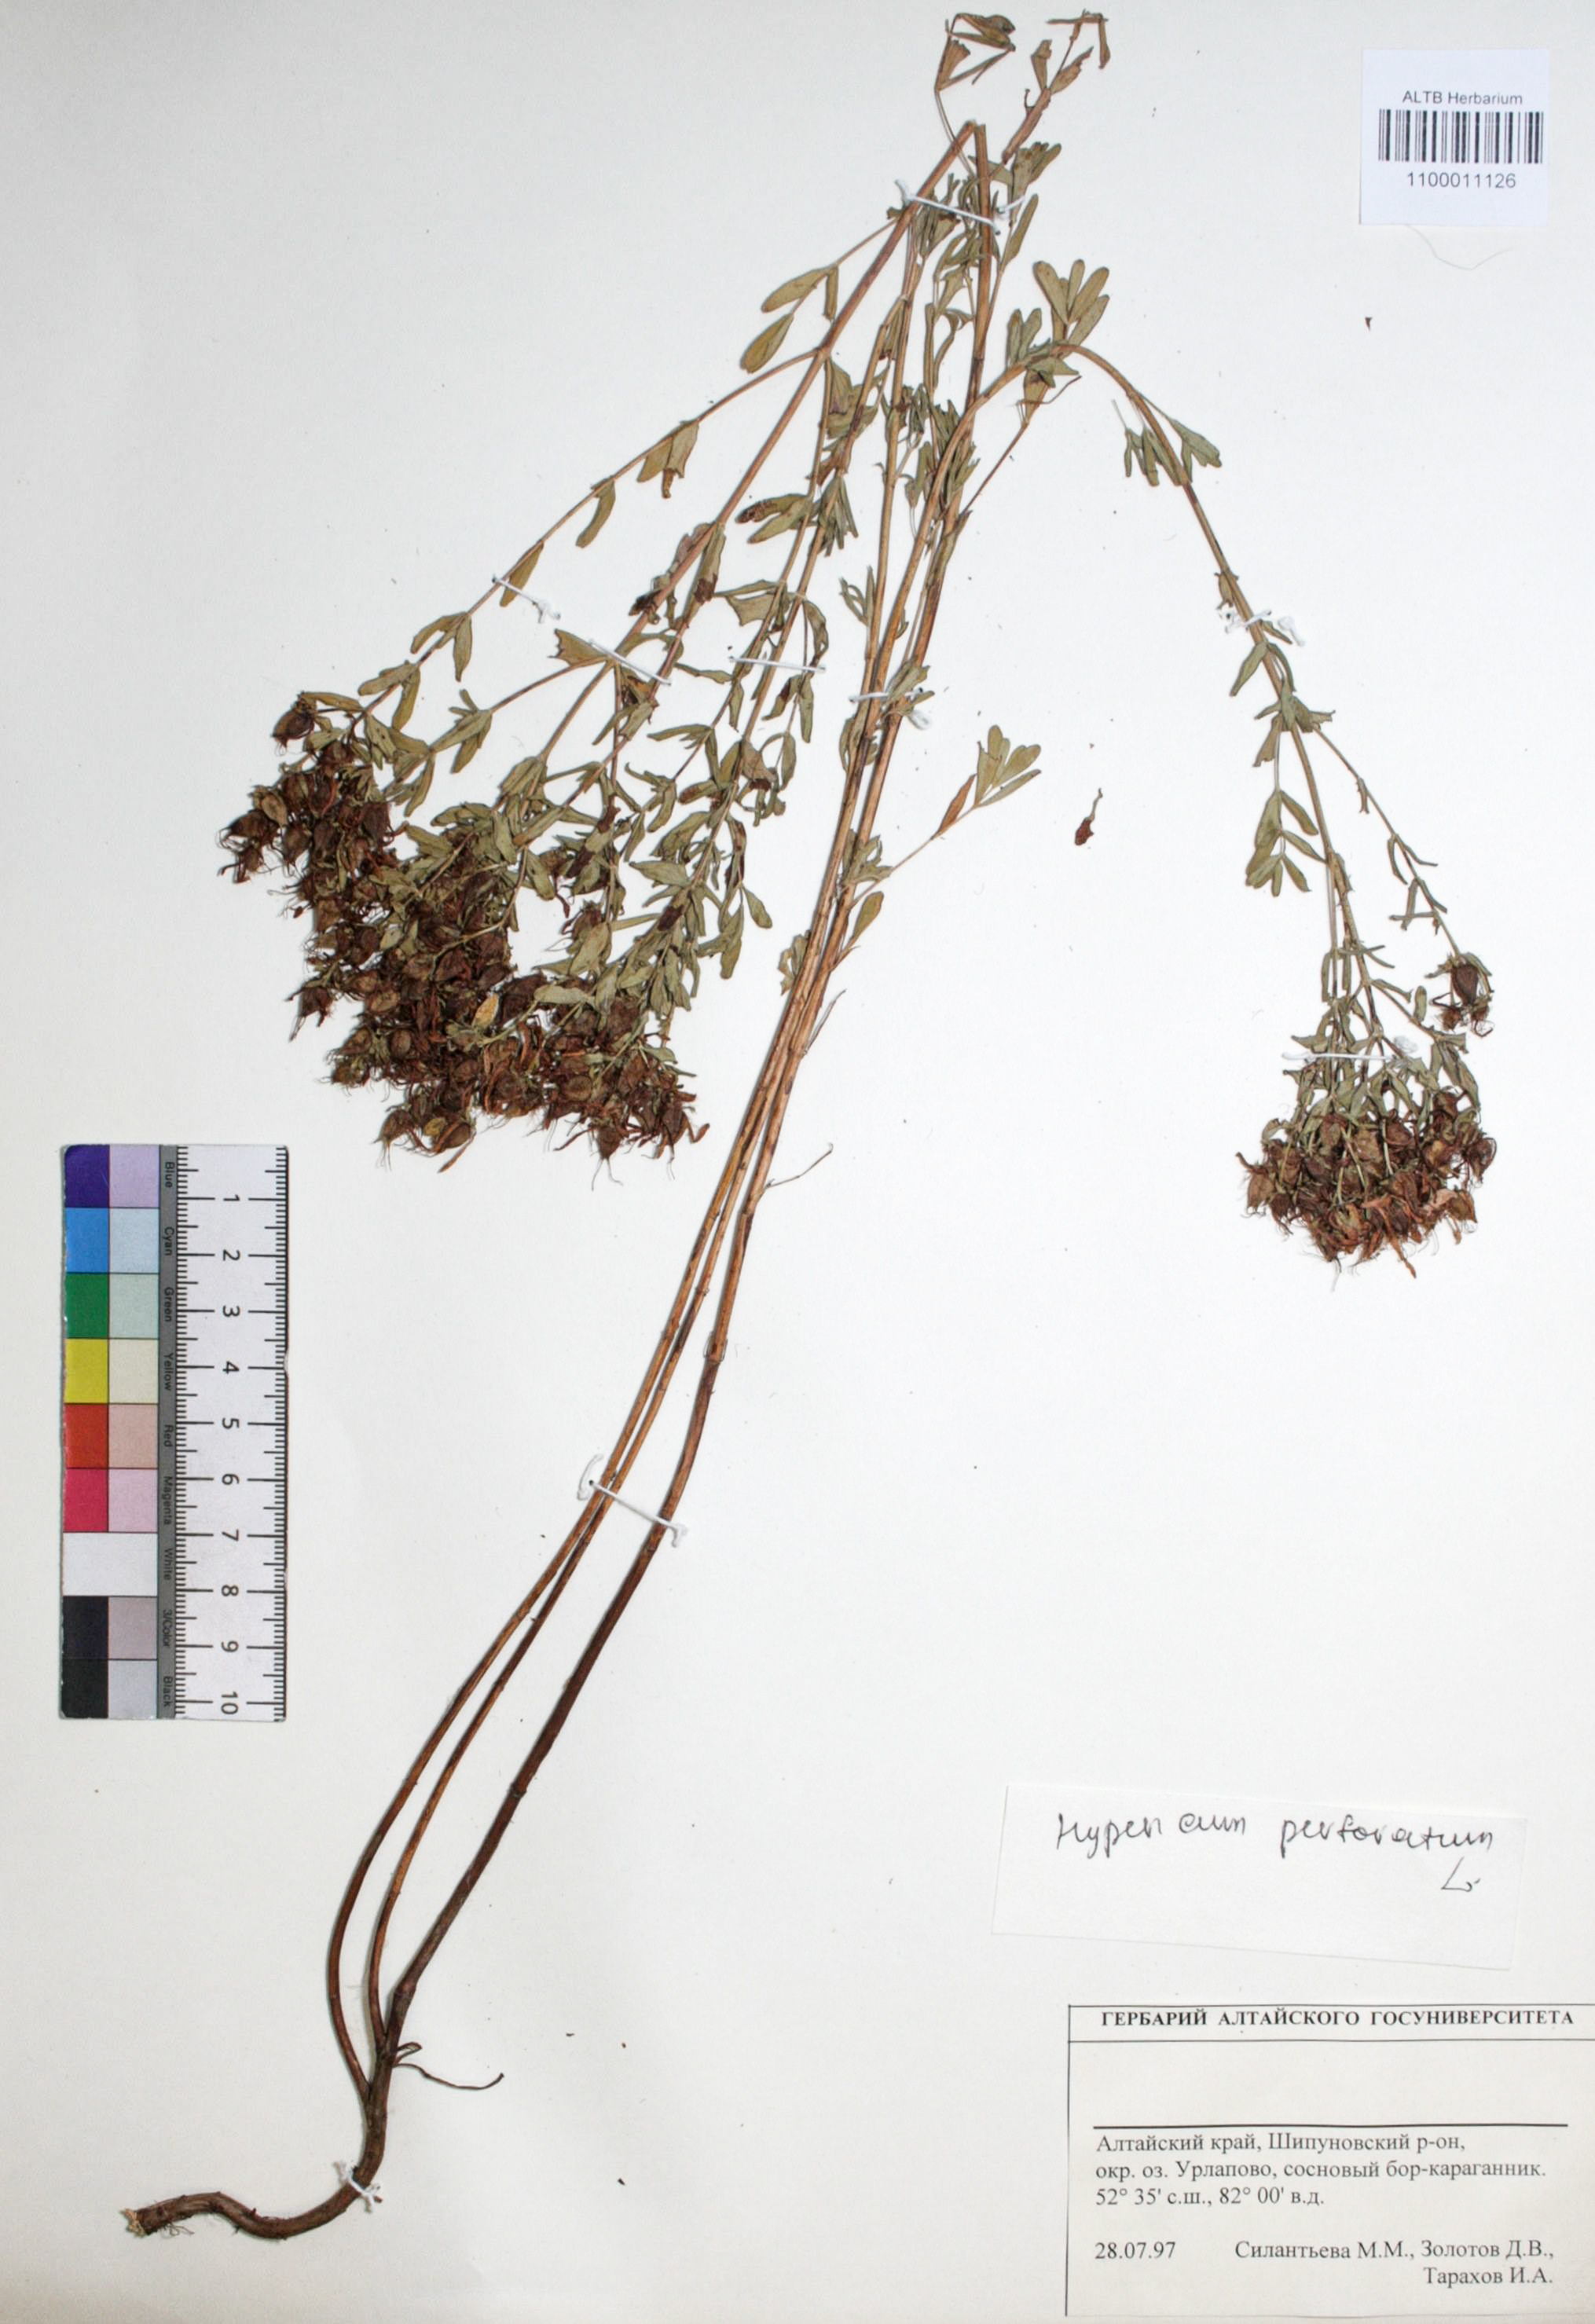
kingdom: Plantae
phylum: Tracheophyta
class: Magnoliopsida
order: Malpighiales
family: Hypericaceae
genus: Hypericum
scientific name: Hypericum perforatum
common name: Common st. johnswort
